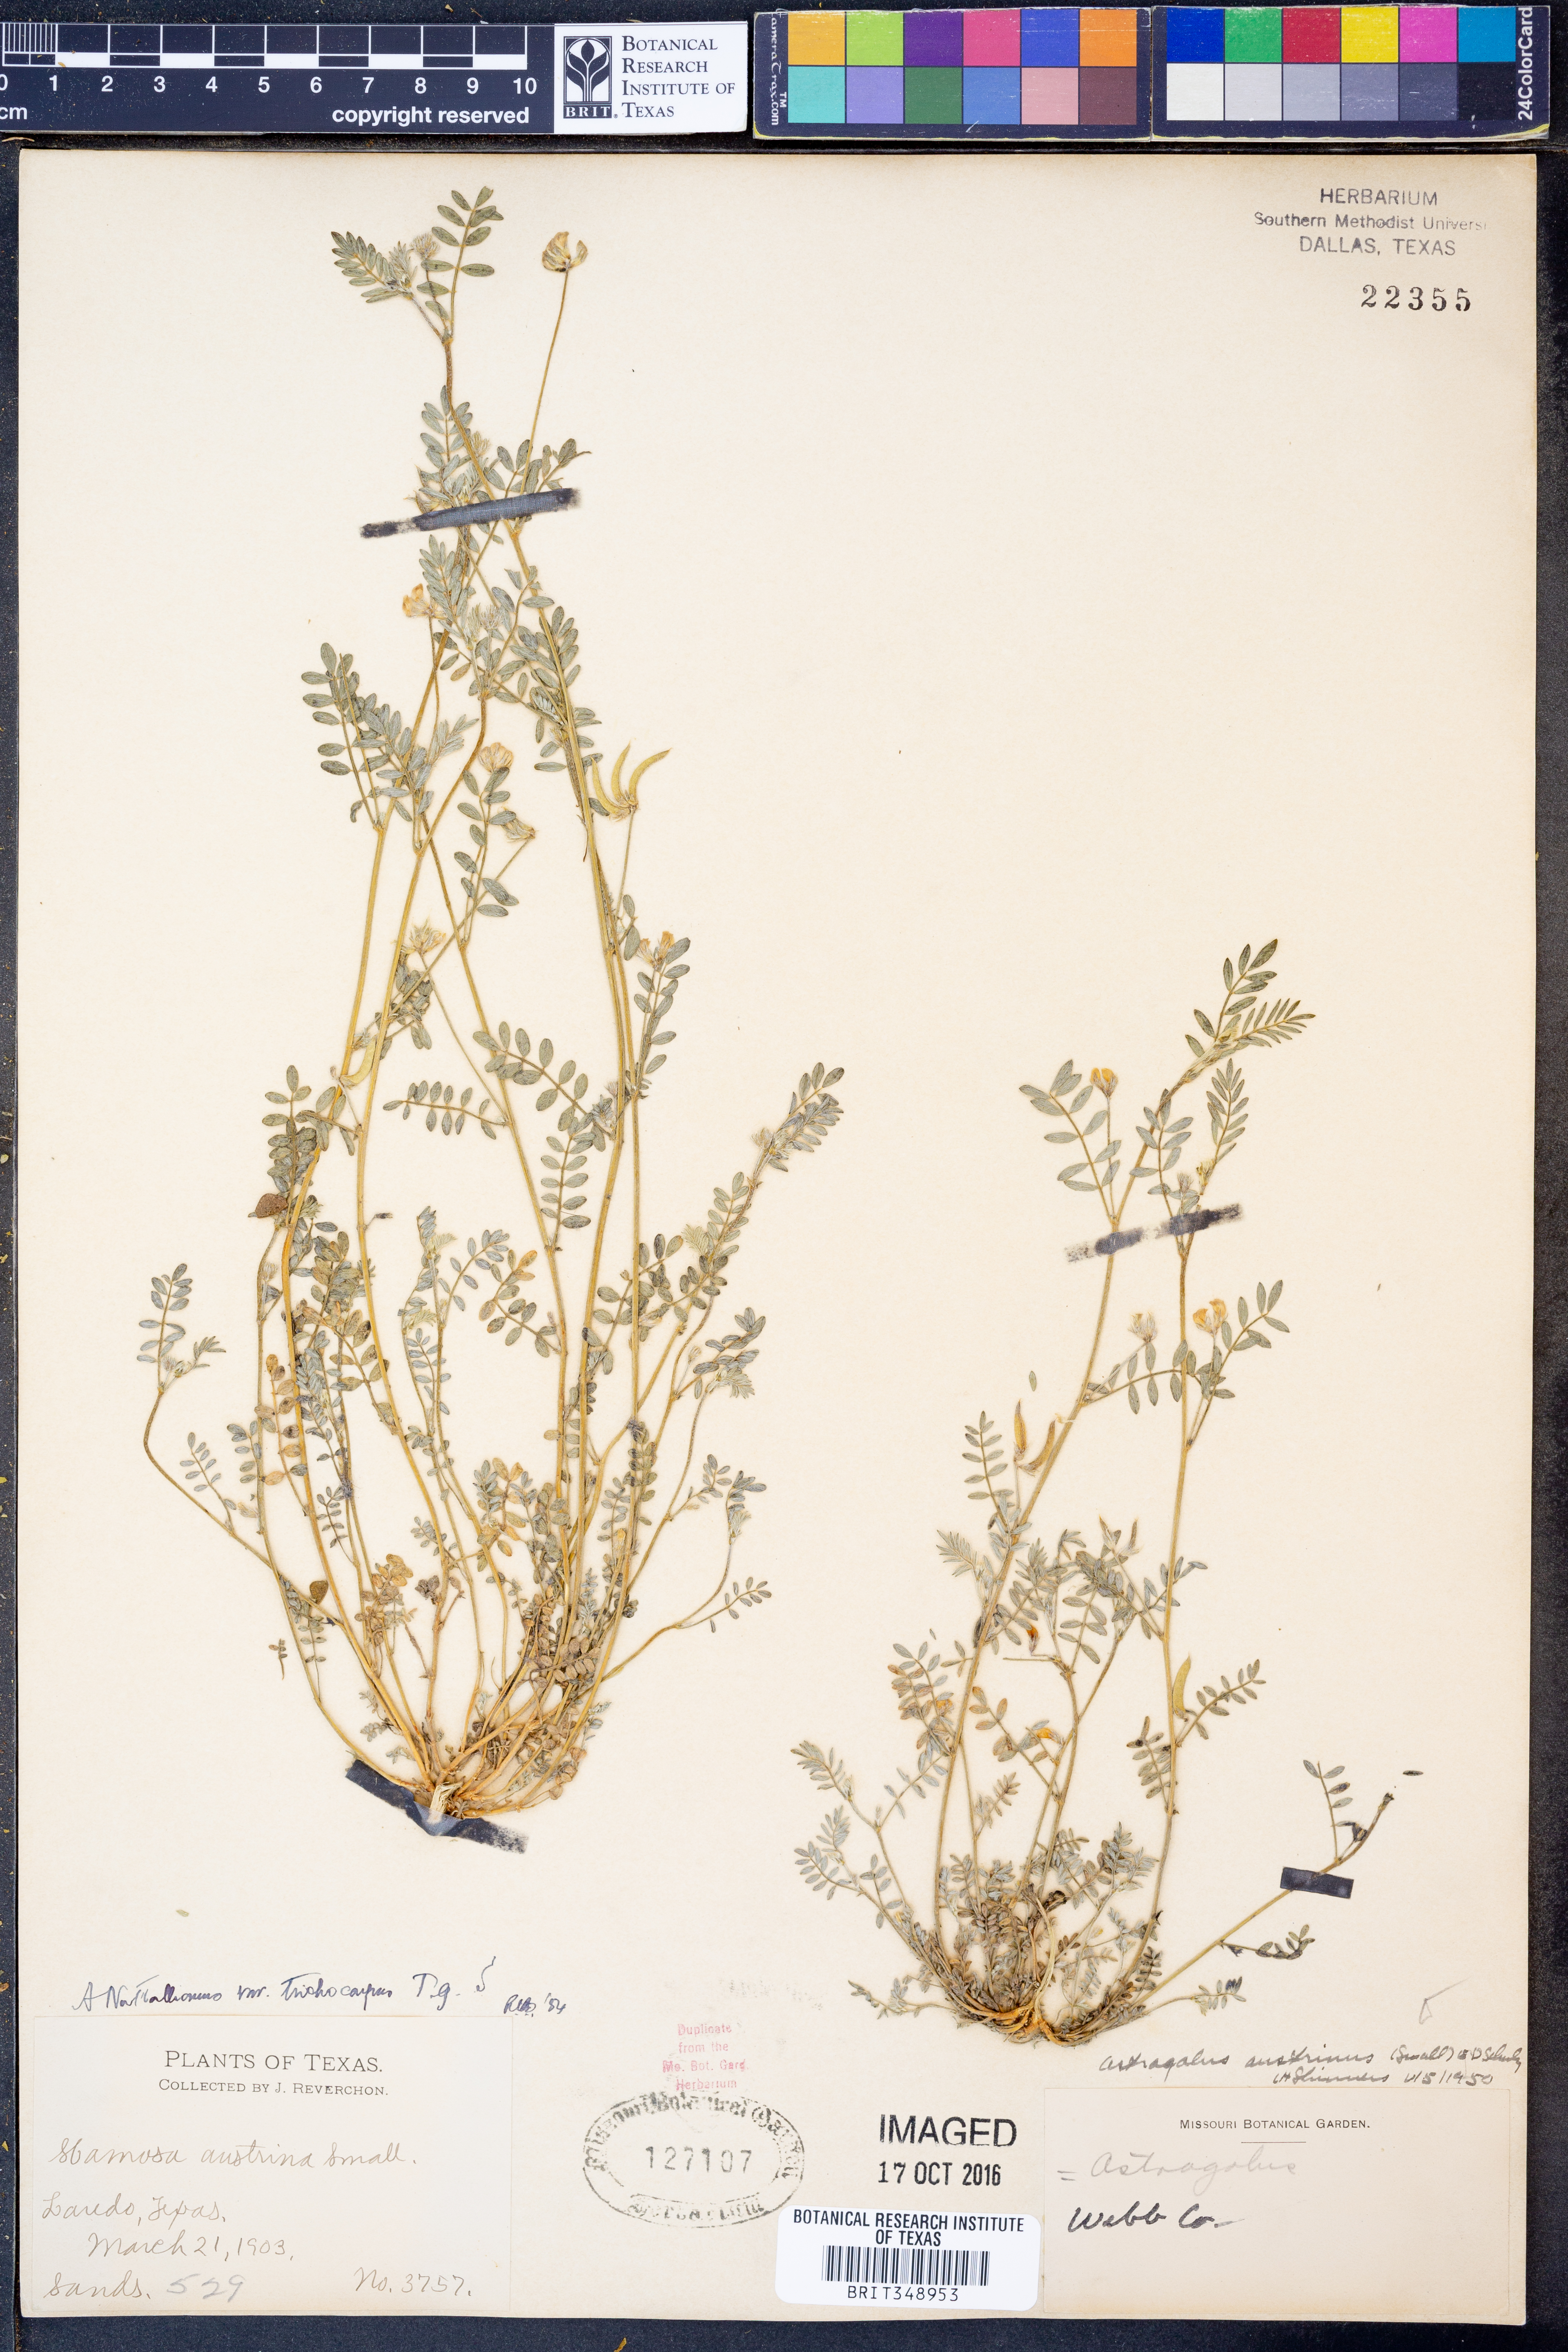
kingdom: Plantae
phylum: Tracheophyta
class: Magnoliopsida
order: Fabales
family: Fabaceae
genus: Astragalus
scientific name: Astragalus nuttallianus
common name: Smallflowered milkvetch
